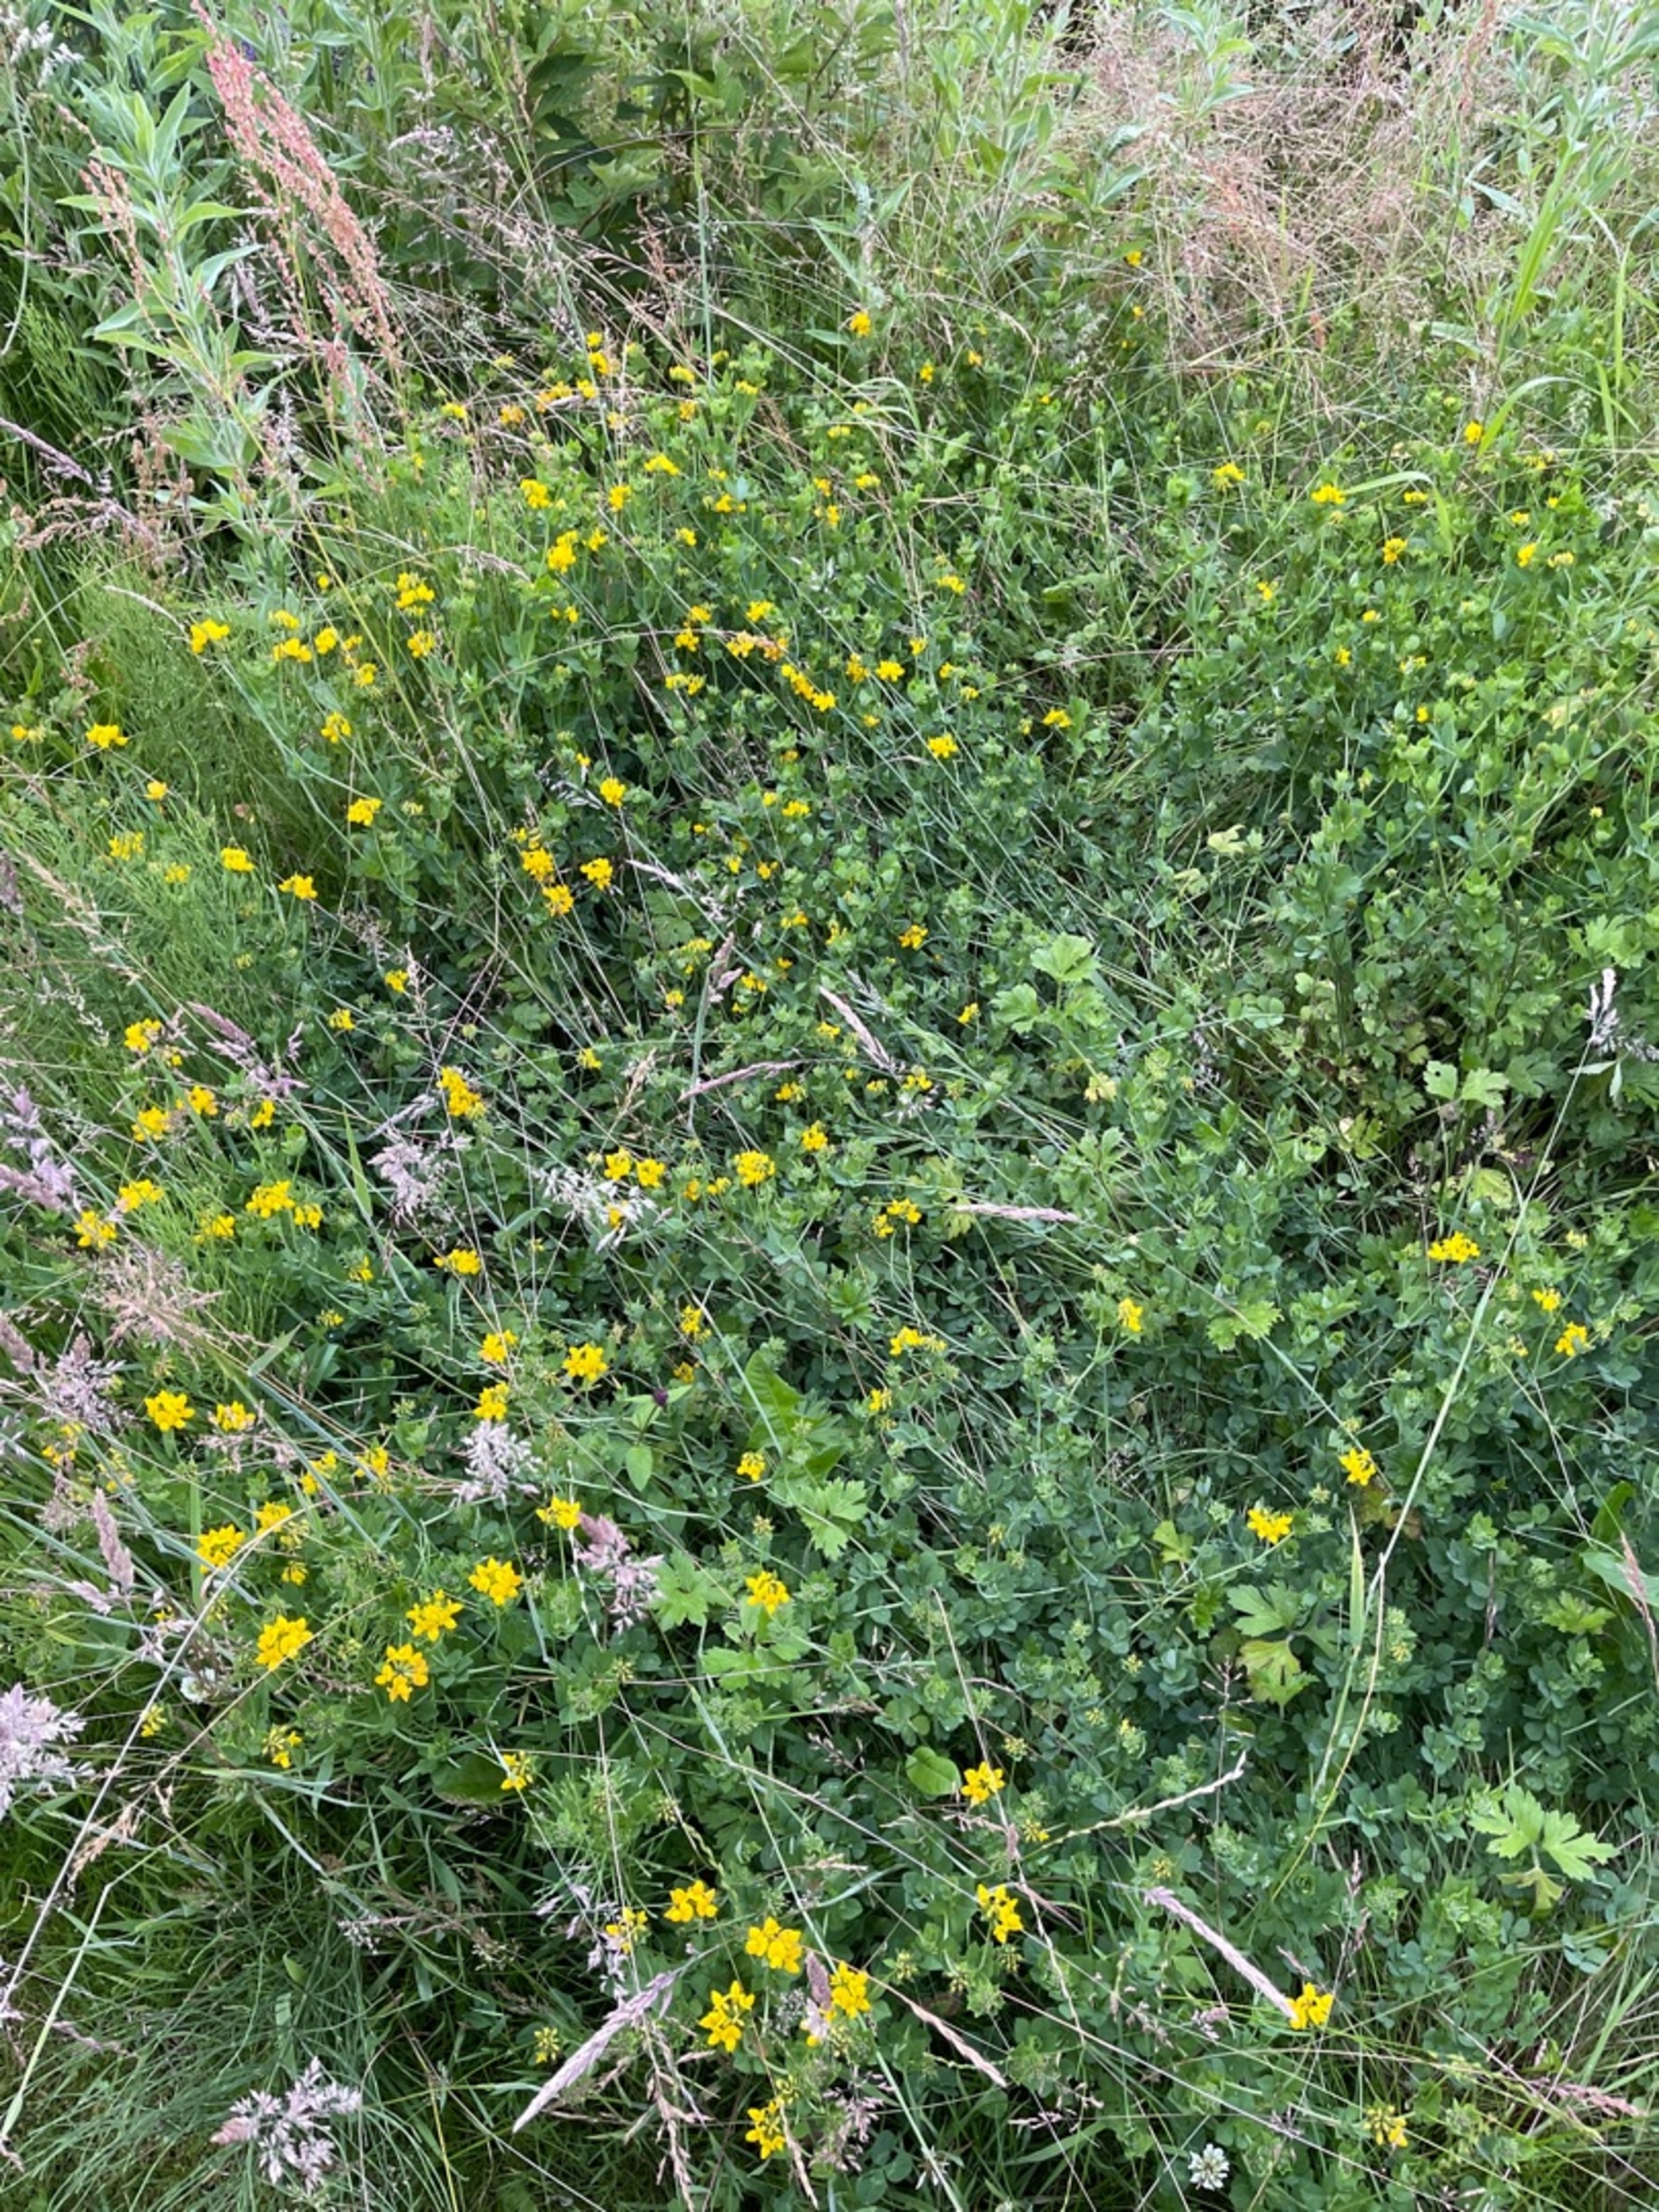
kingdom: Plantae
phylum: Tracheophyta
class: Magnoliopsida
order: Fabales
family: Fabaceae
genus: Lotus
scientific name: Lotus pedunculatus
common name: Sump-kællingetand
